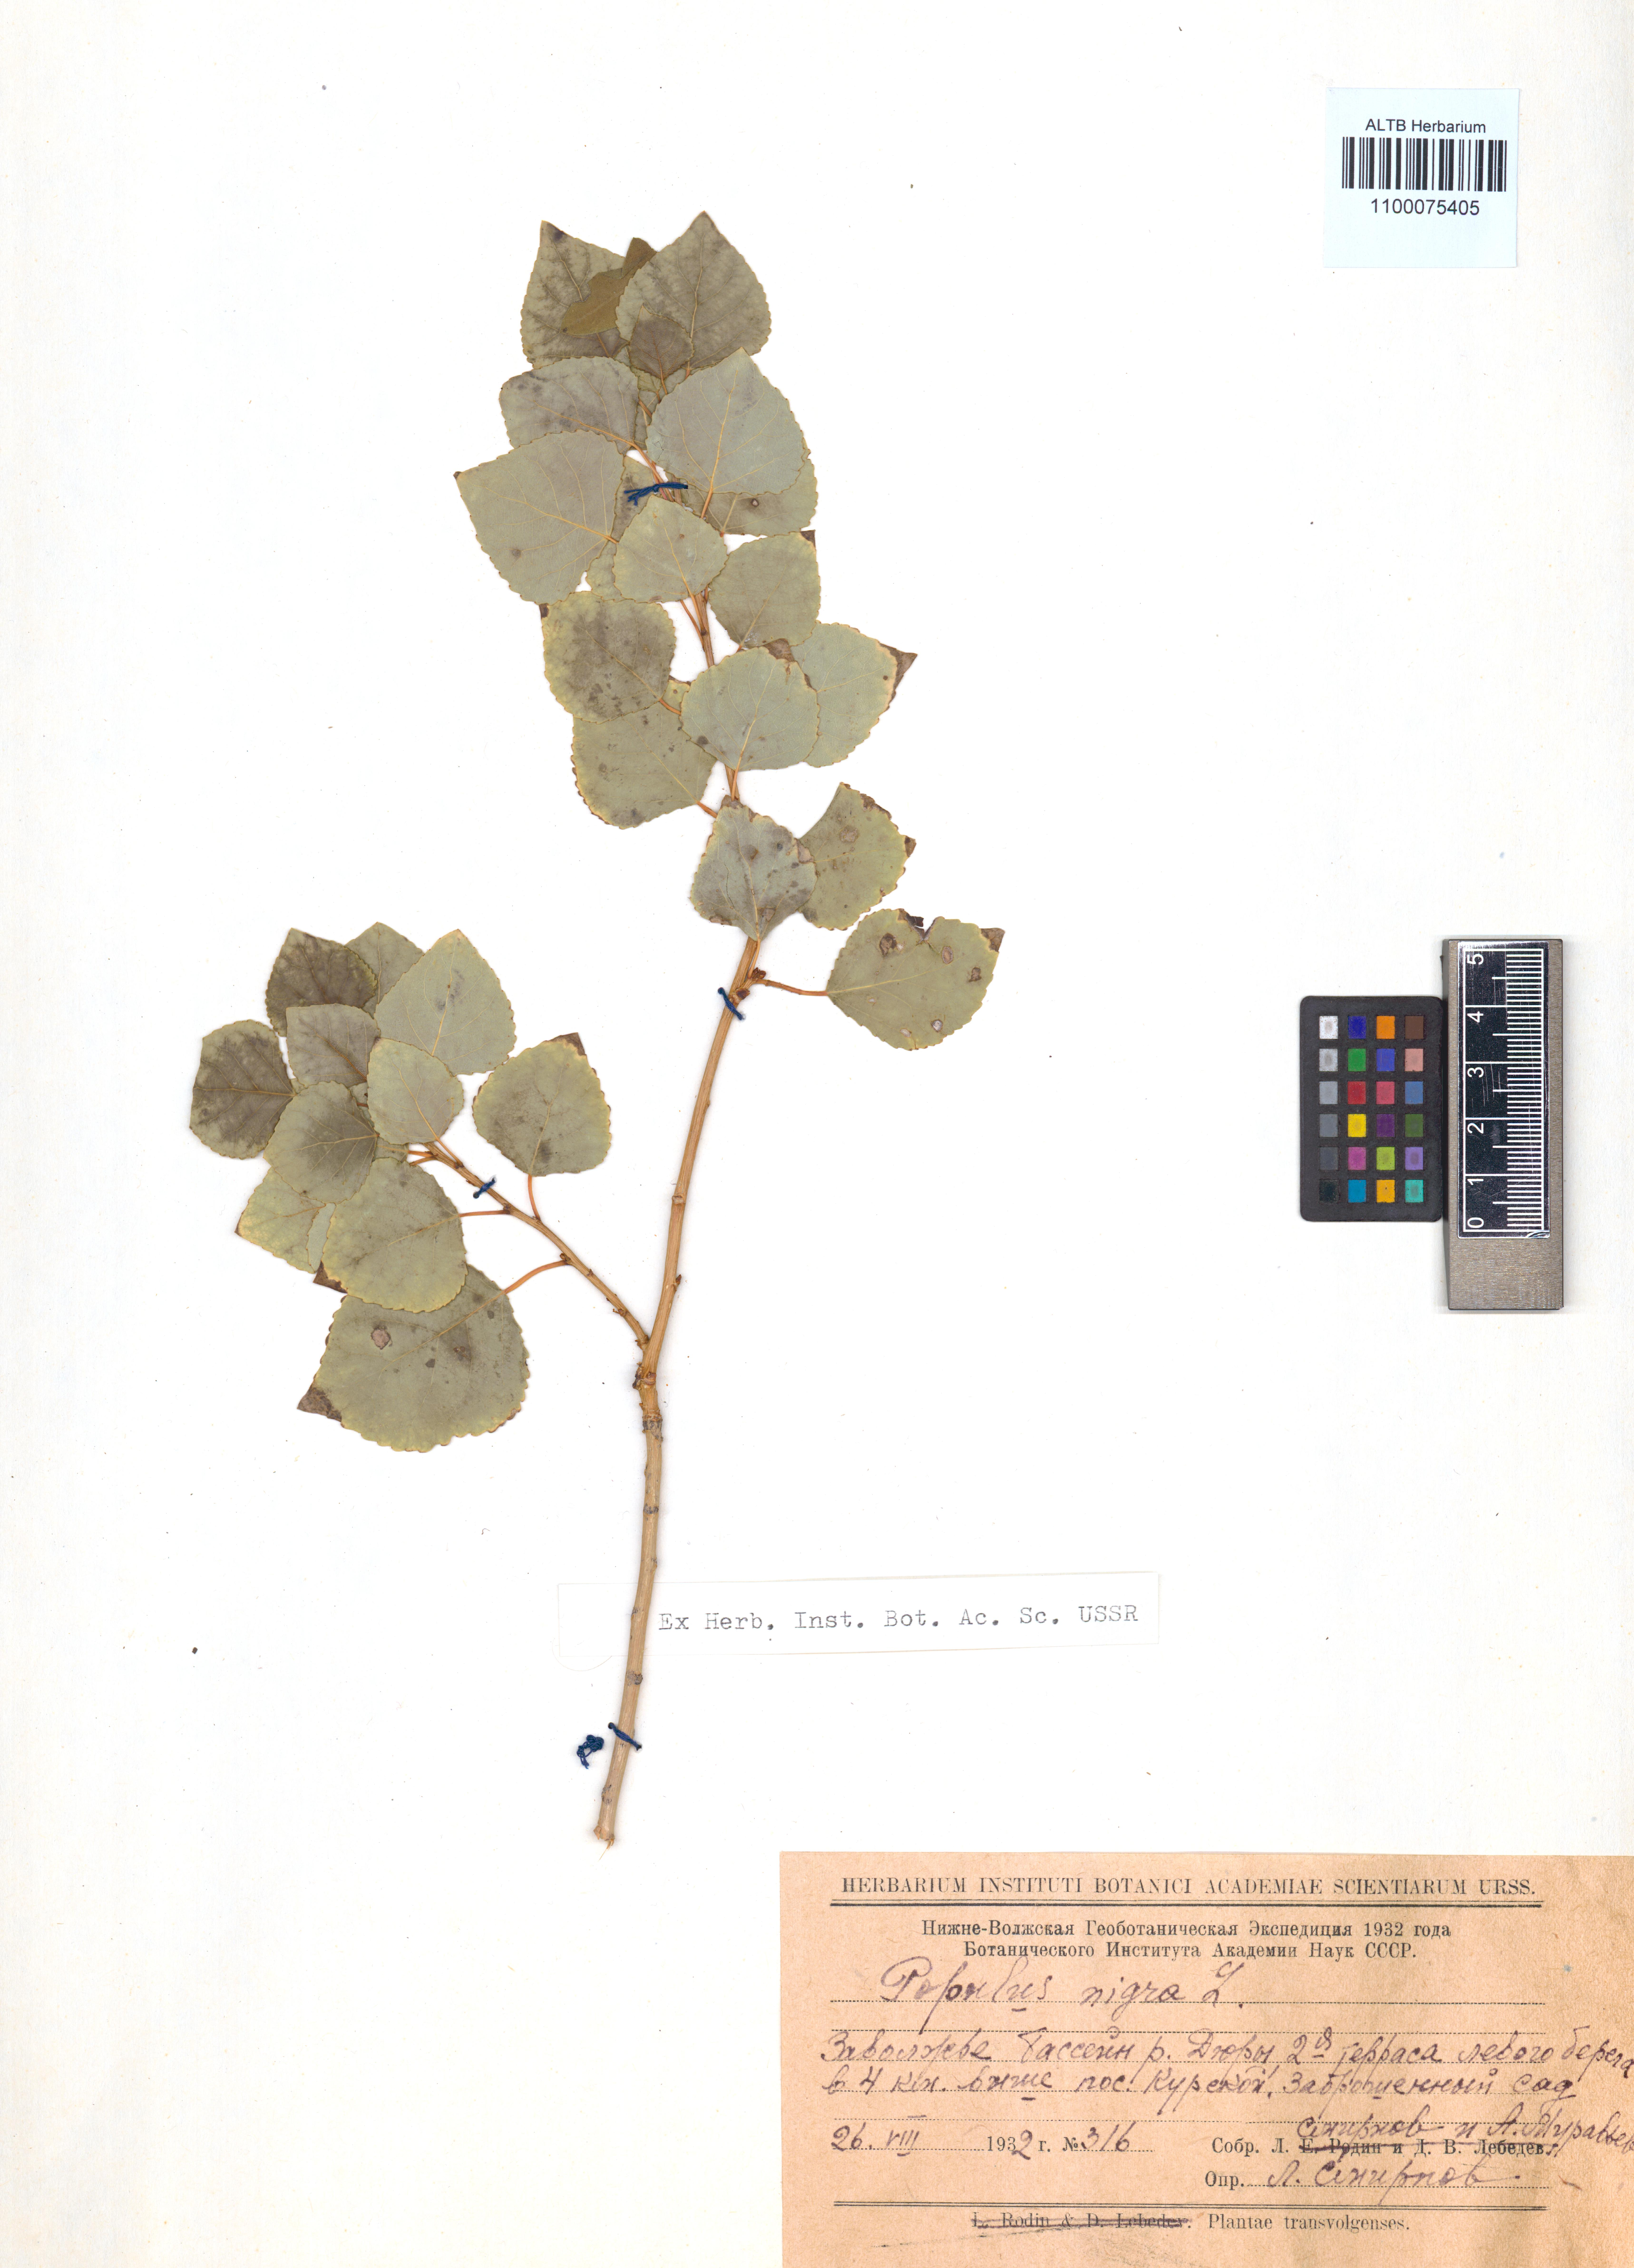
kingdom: Plantae
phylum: Tracheophyta
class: Magnoliopsida
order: Malpighiales
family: Salicaceae
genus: Populus
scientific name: Populus nigra
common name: Black poplar
